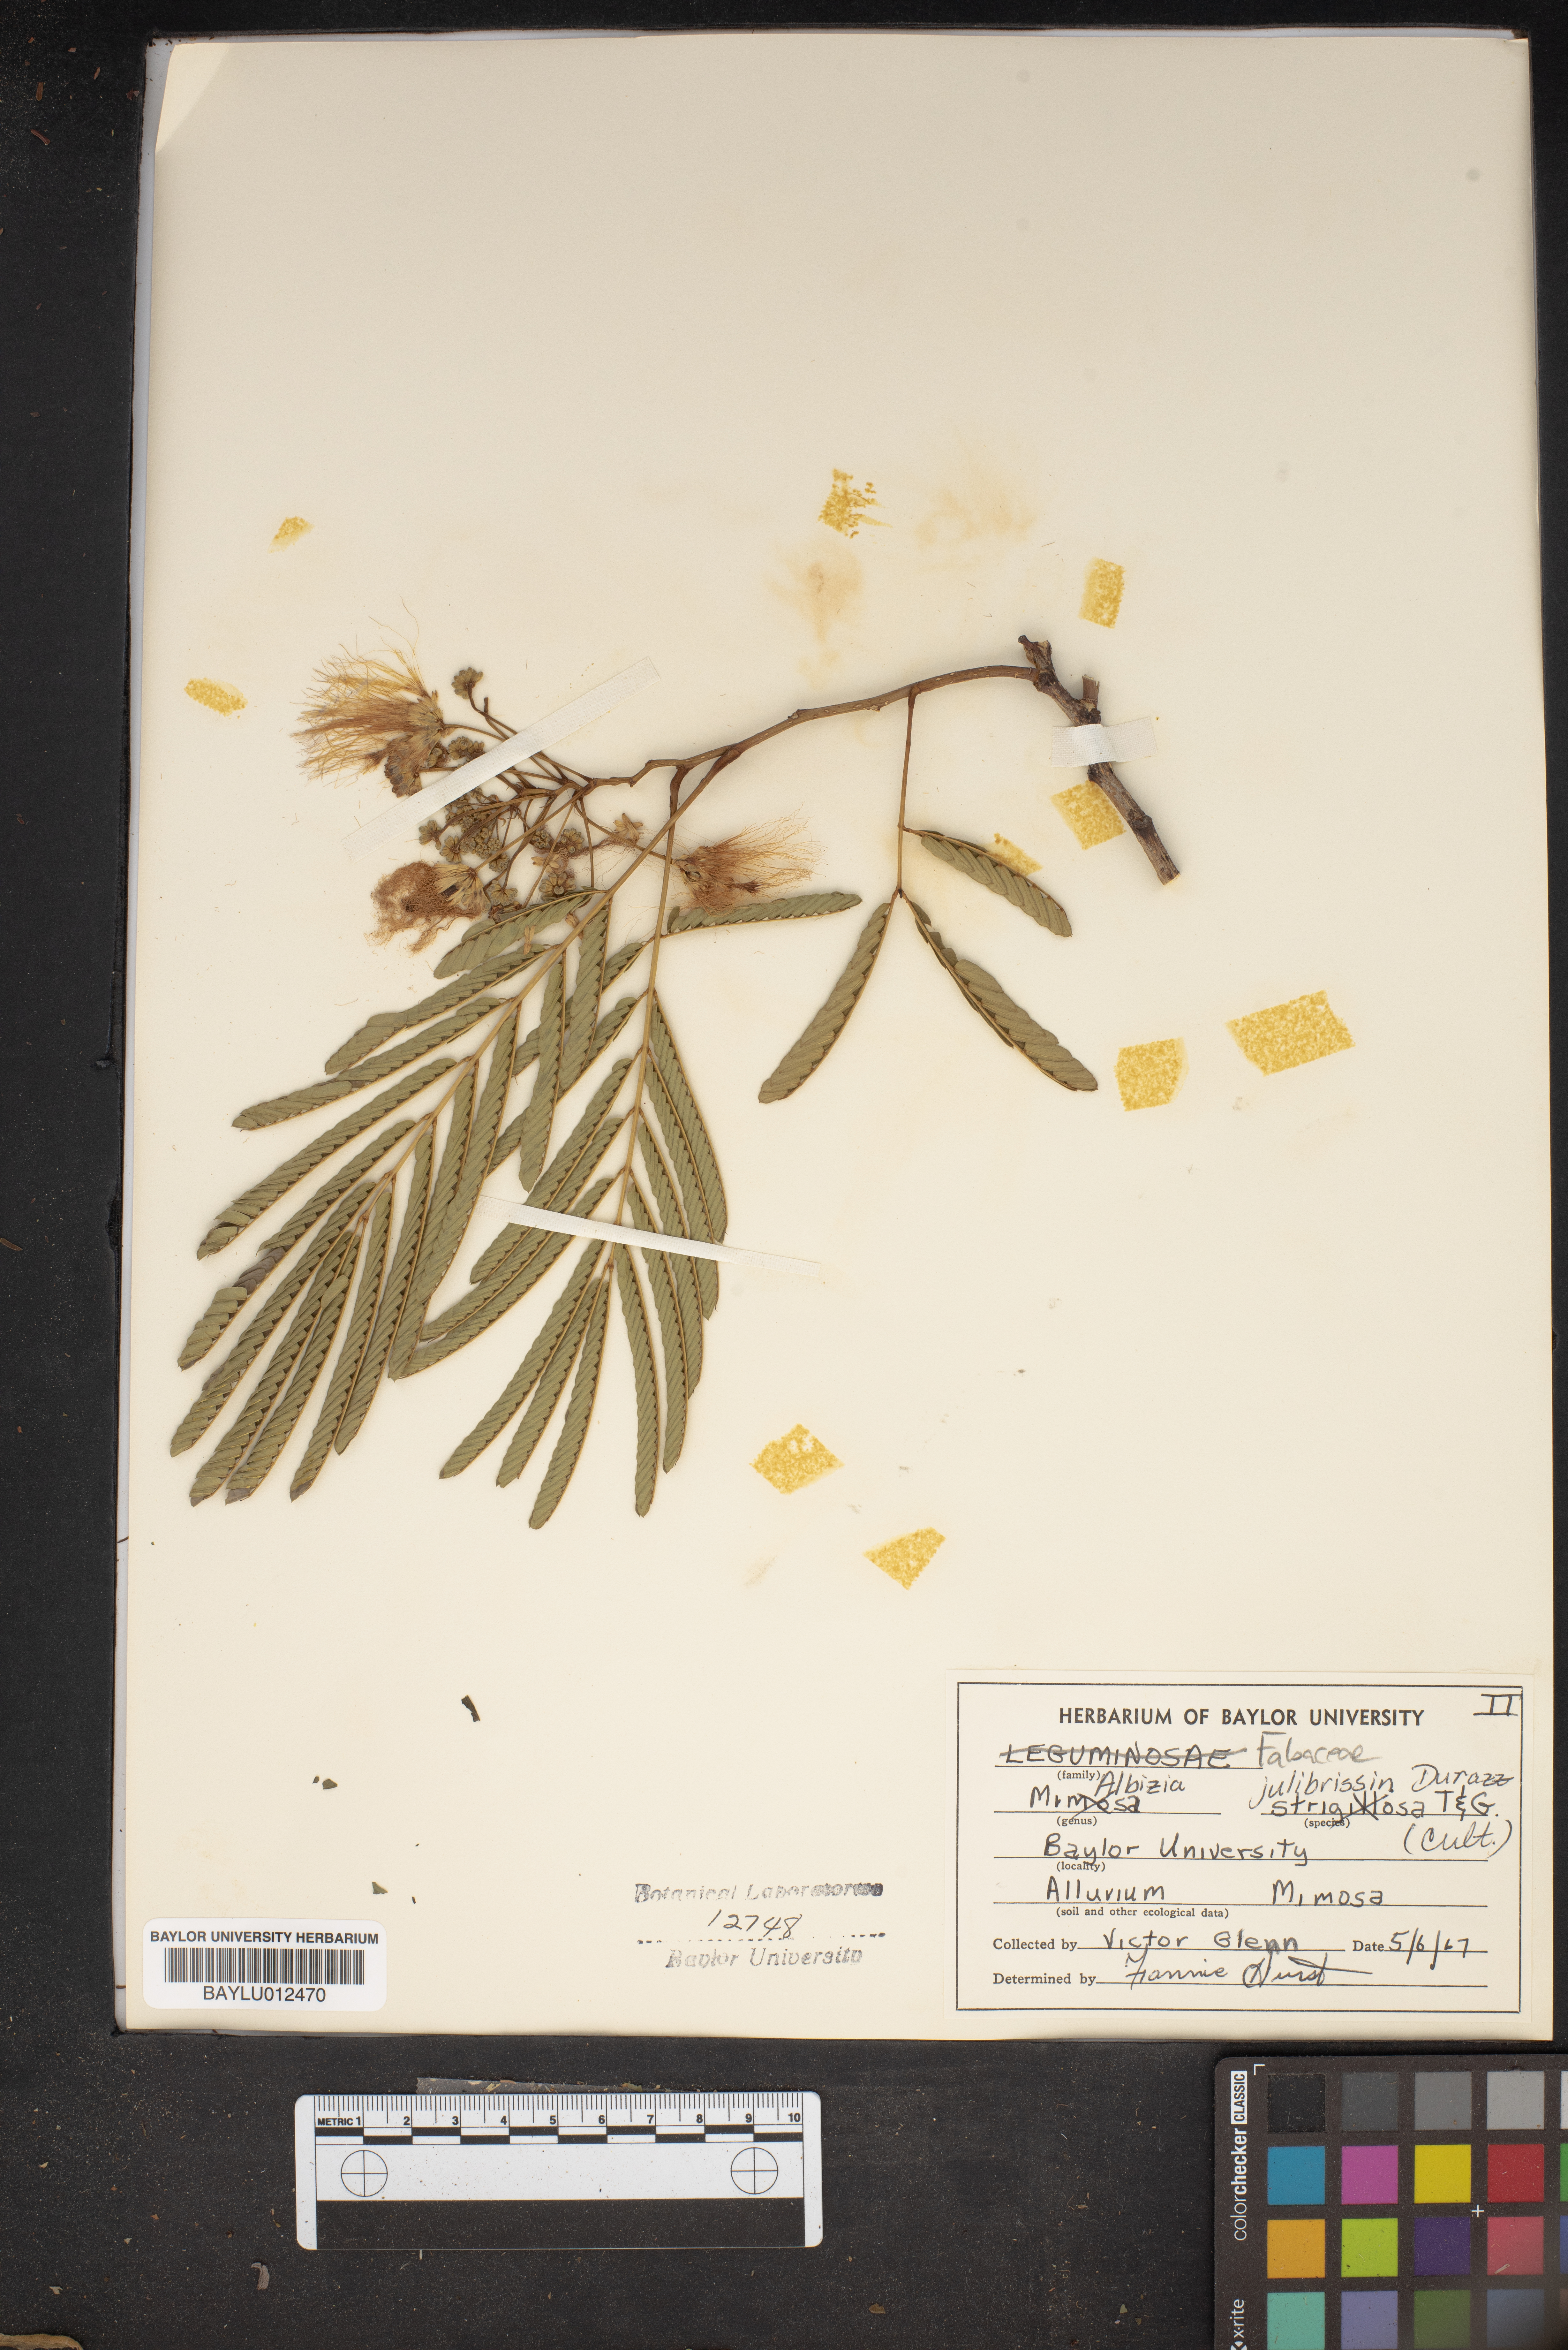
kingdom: Plantae
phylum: Tracheophyta
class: Magnoliopsida
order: Fabales
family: Fabaceae
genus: Albizia
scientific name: Albizia julibrissin
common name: Silktree
